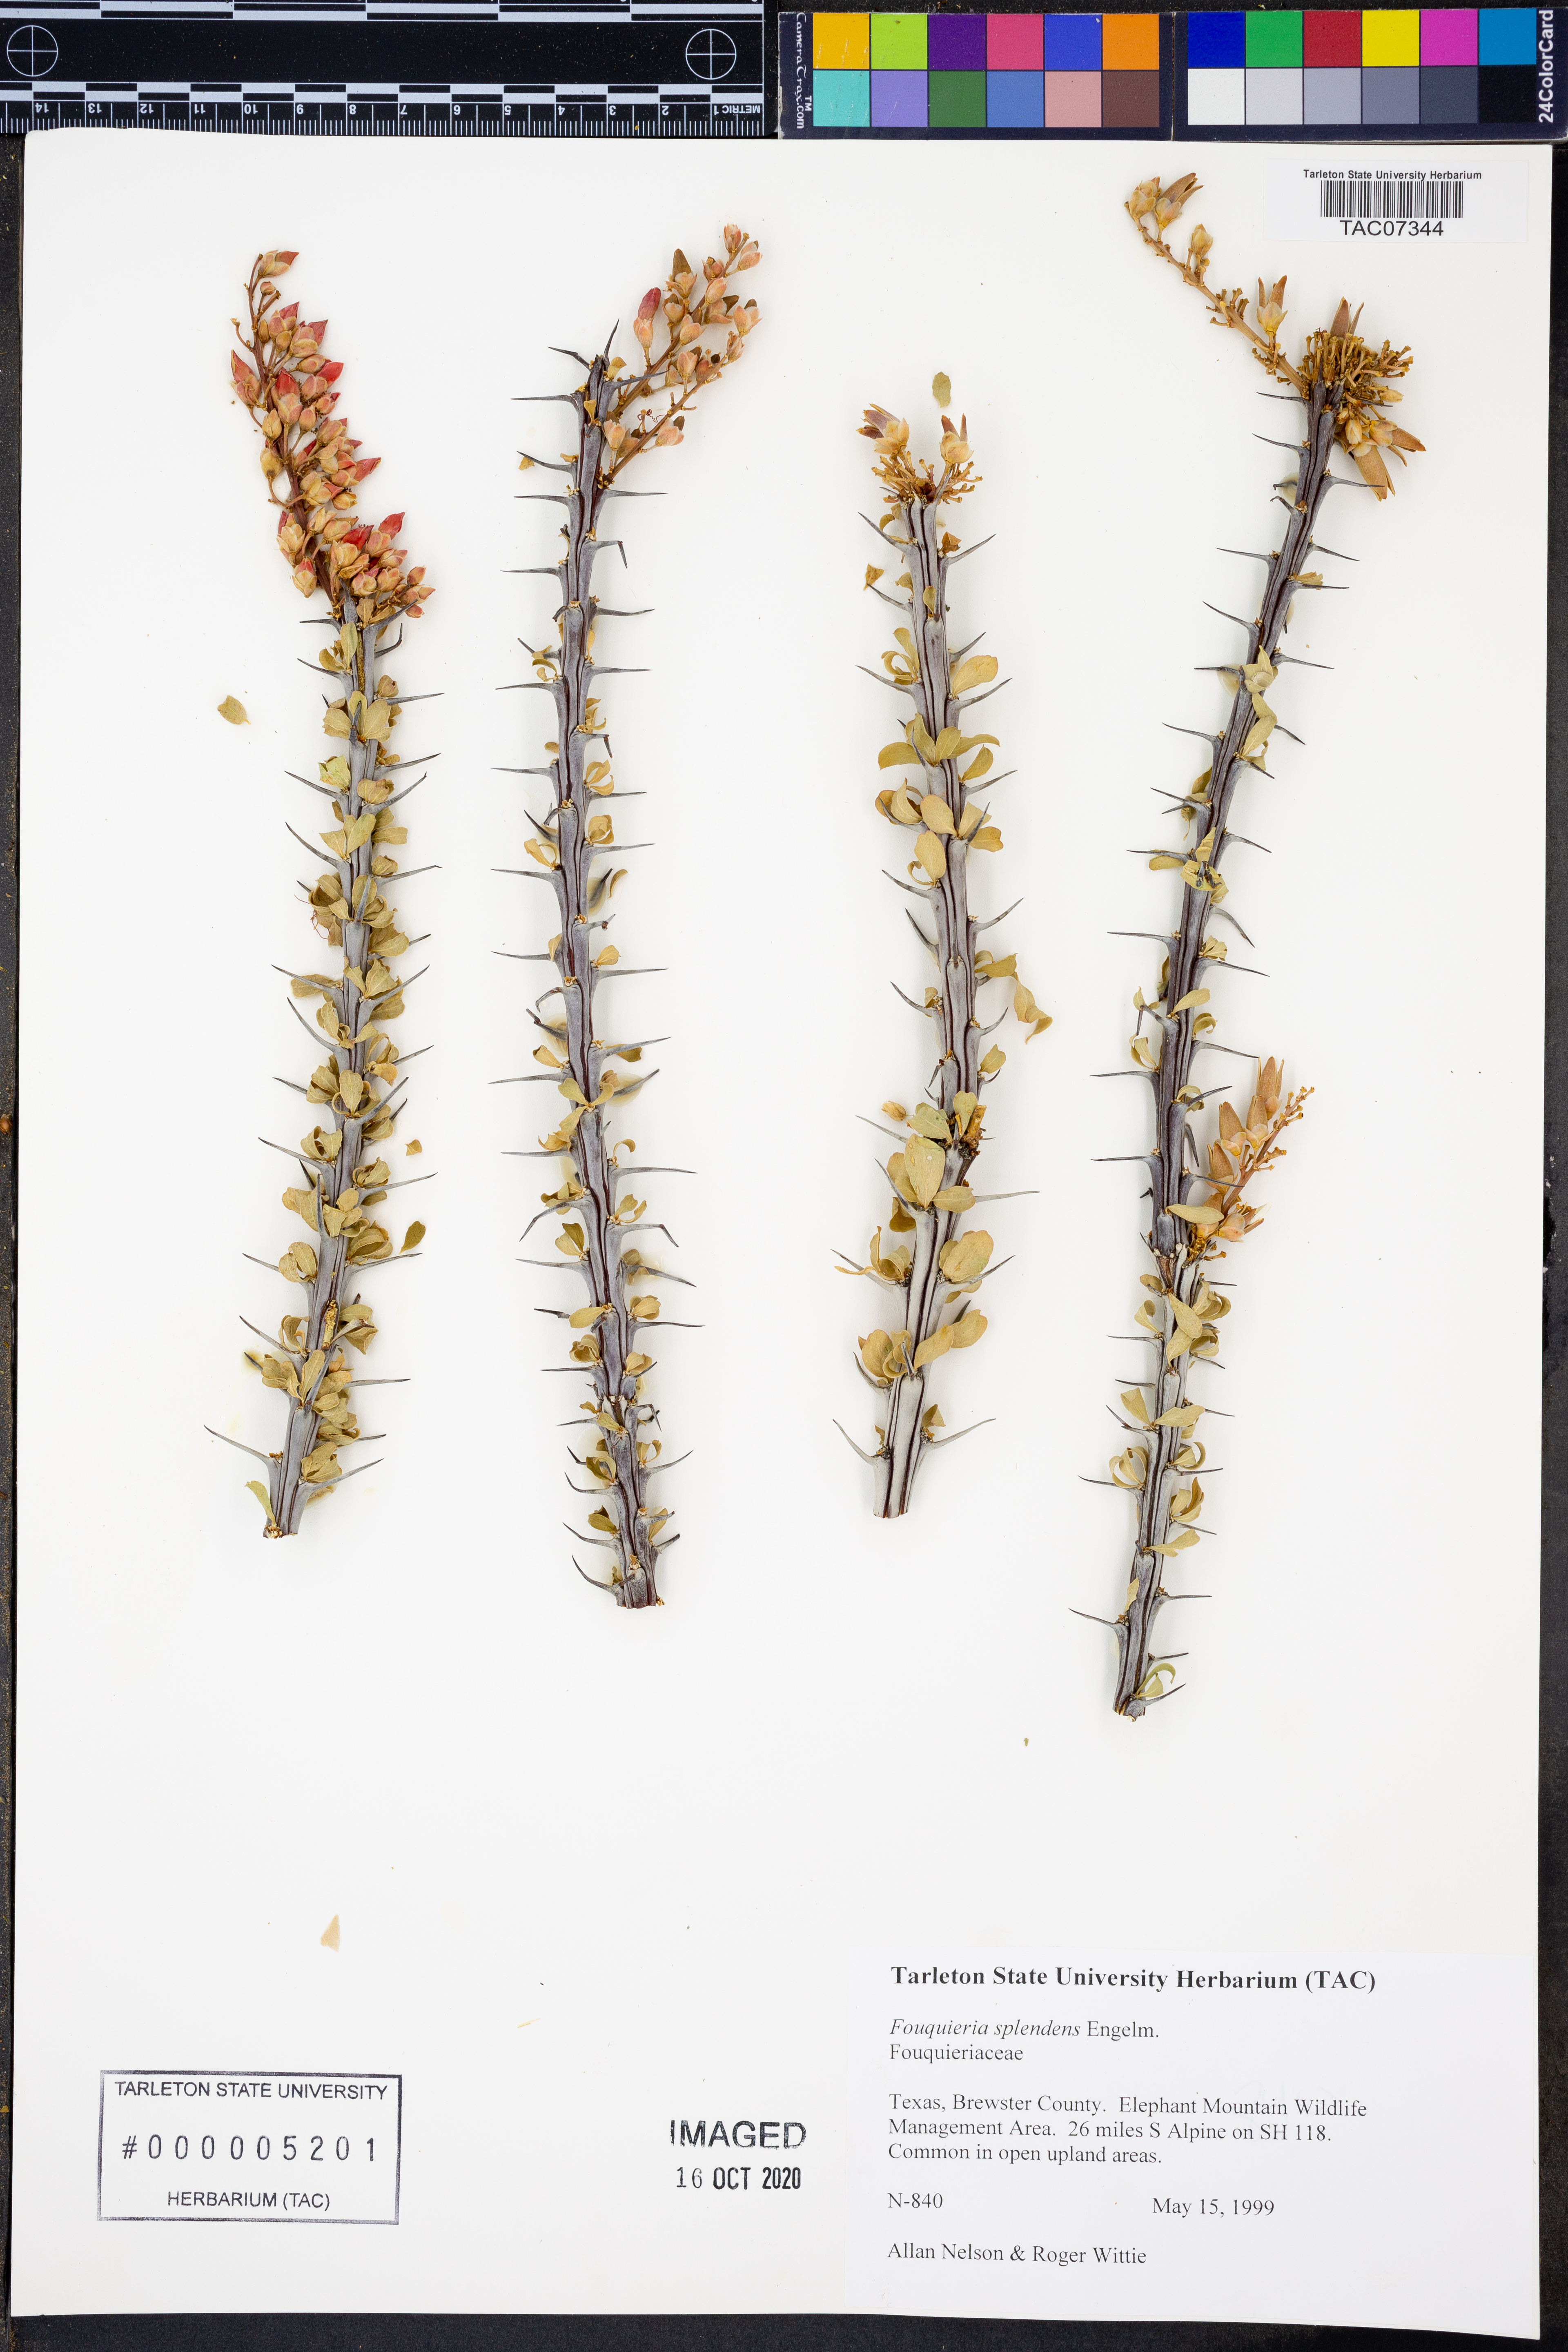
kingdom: Plantae
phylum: Tracheophyta
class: Magnoliopsida
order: Ericales
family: Fouquieriaceae
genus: Fouquieria
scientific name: Fouquieria splendens
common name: Vine-cactus
